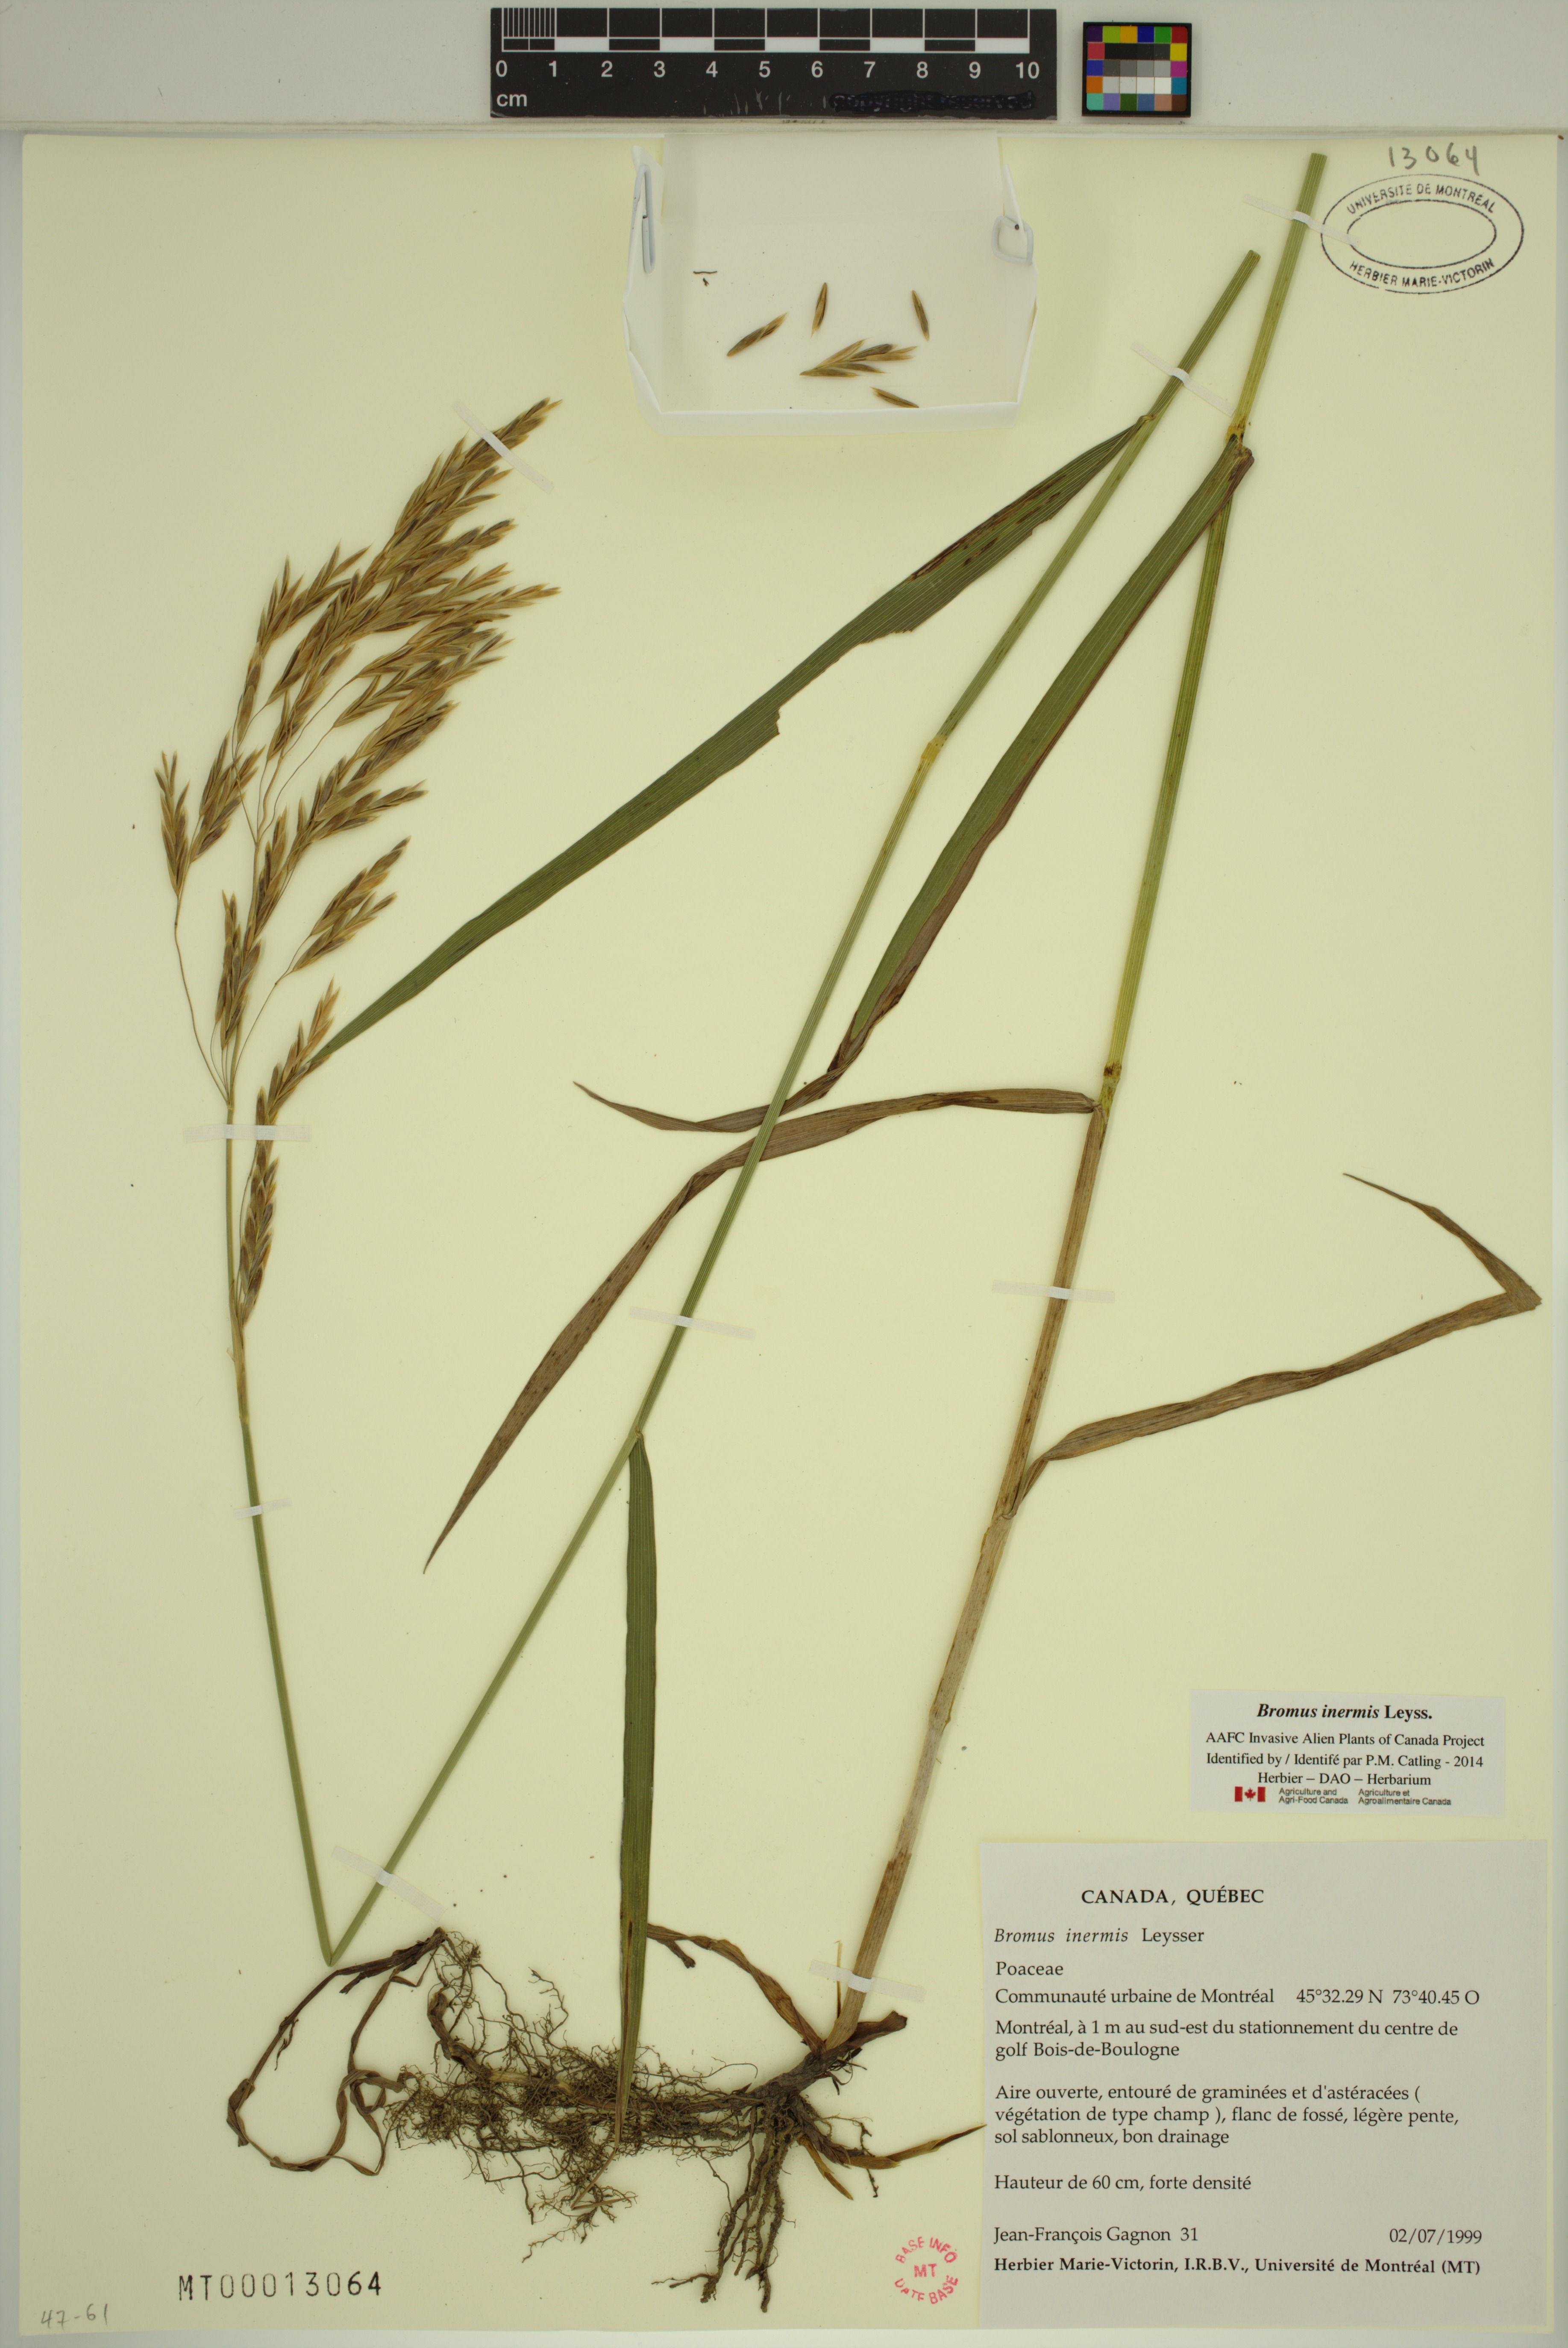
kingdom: Plantae
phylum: Tracheophyta
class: Liliopsida
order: Poales
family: Poaceae
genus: Bromus
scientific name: Bromus inermis
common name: Smooth brome
